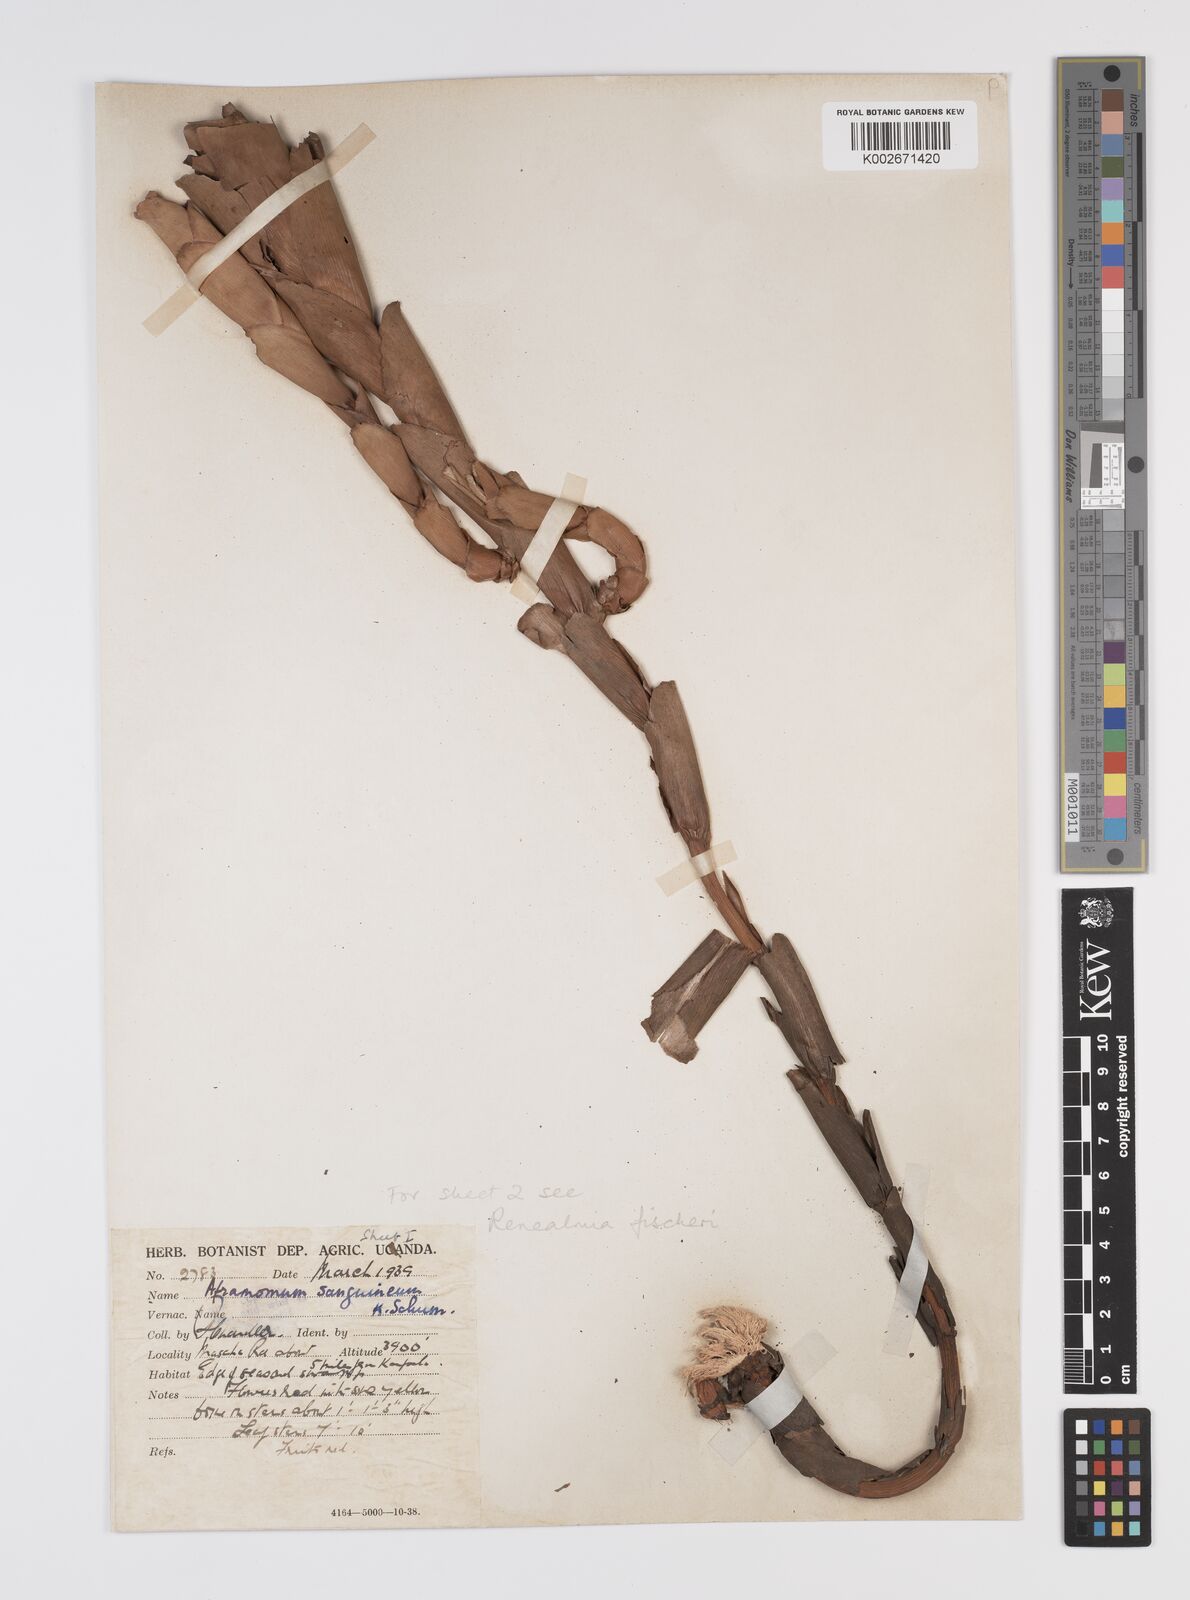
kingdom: Plantae
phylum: Tracheophyta
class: Liliopsida
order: Zingiberales
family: Zingiberaceae
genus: Aframomum
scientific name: Aframomum angustifolium
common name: Guinea grains
